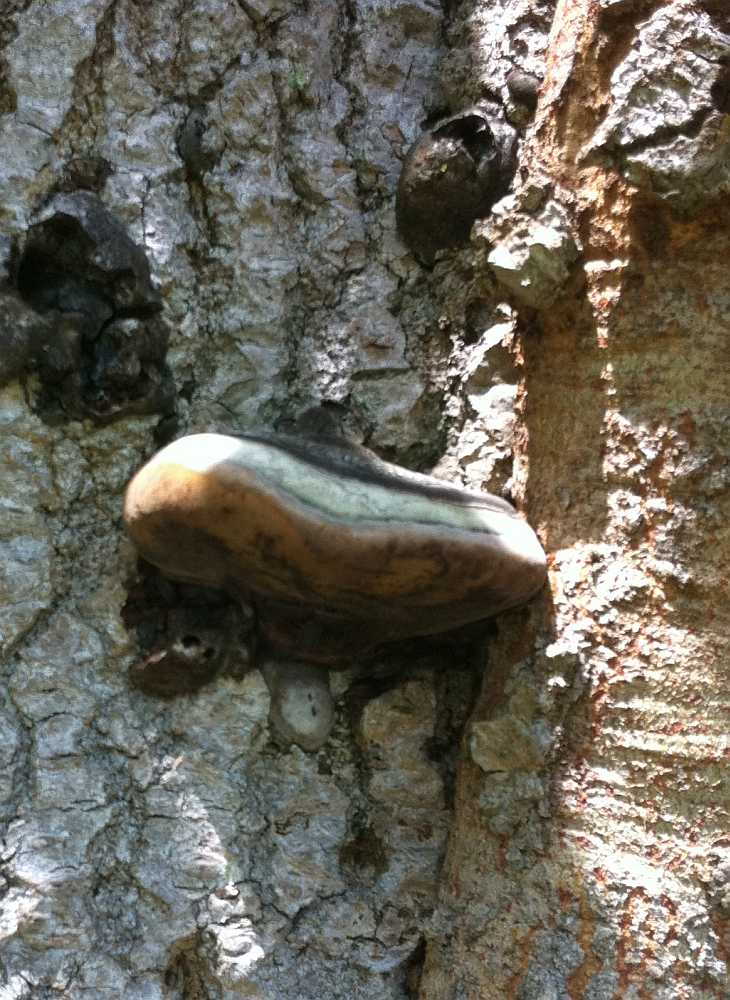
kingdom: Fungi
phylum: Basidiomycota
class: Agaricomycetes
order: Hymenochaetales
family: Hymenochaetaceae
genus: Phellinus
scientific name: Phellinus populicola
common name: poppel-ildporesvamp
